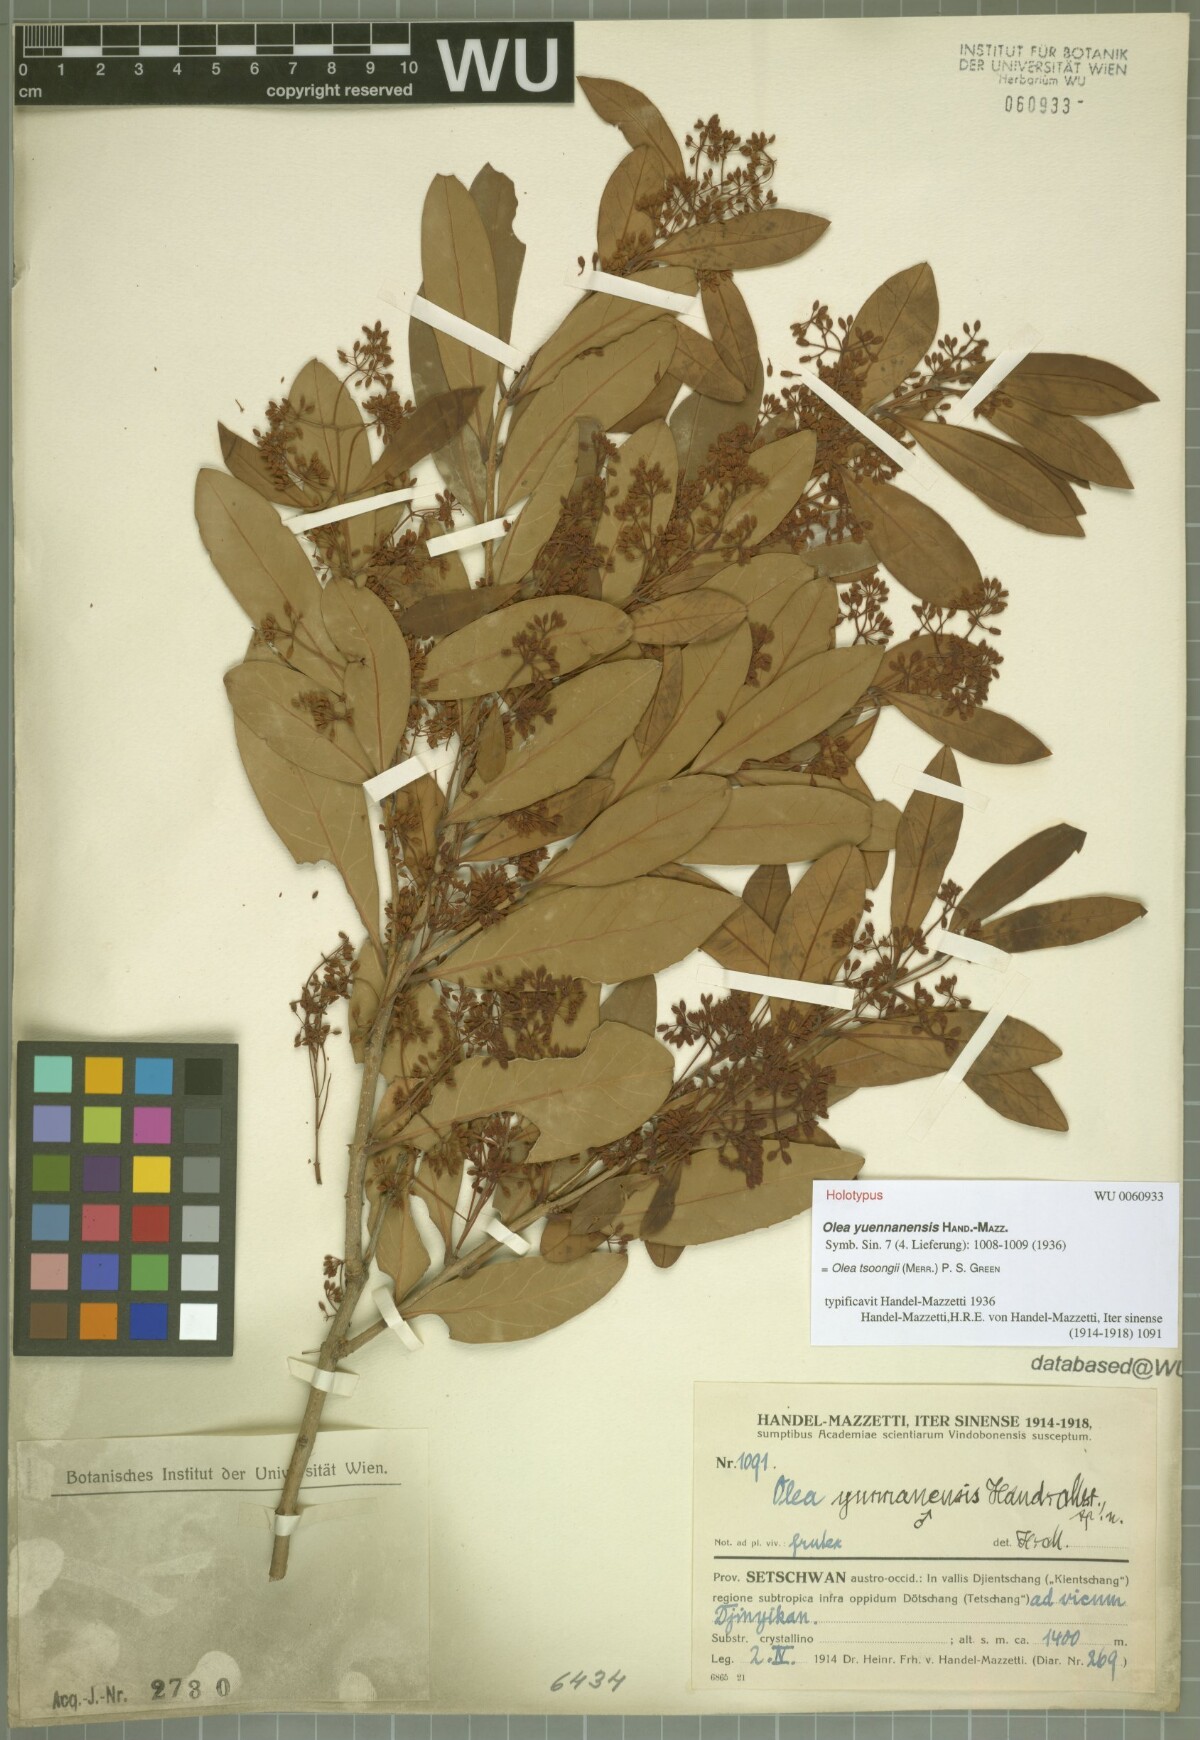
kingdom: Plantae
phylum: Tracheophyta
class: Magnoliopsida
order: Lamiales
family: Oleaceae
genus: Tetrapilus
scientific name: Tetrapilus tsoongii
